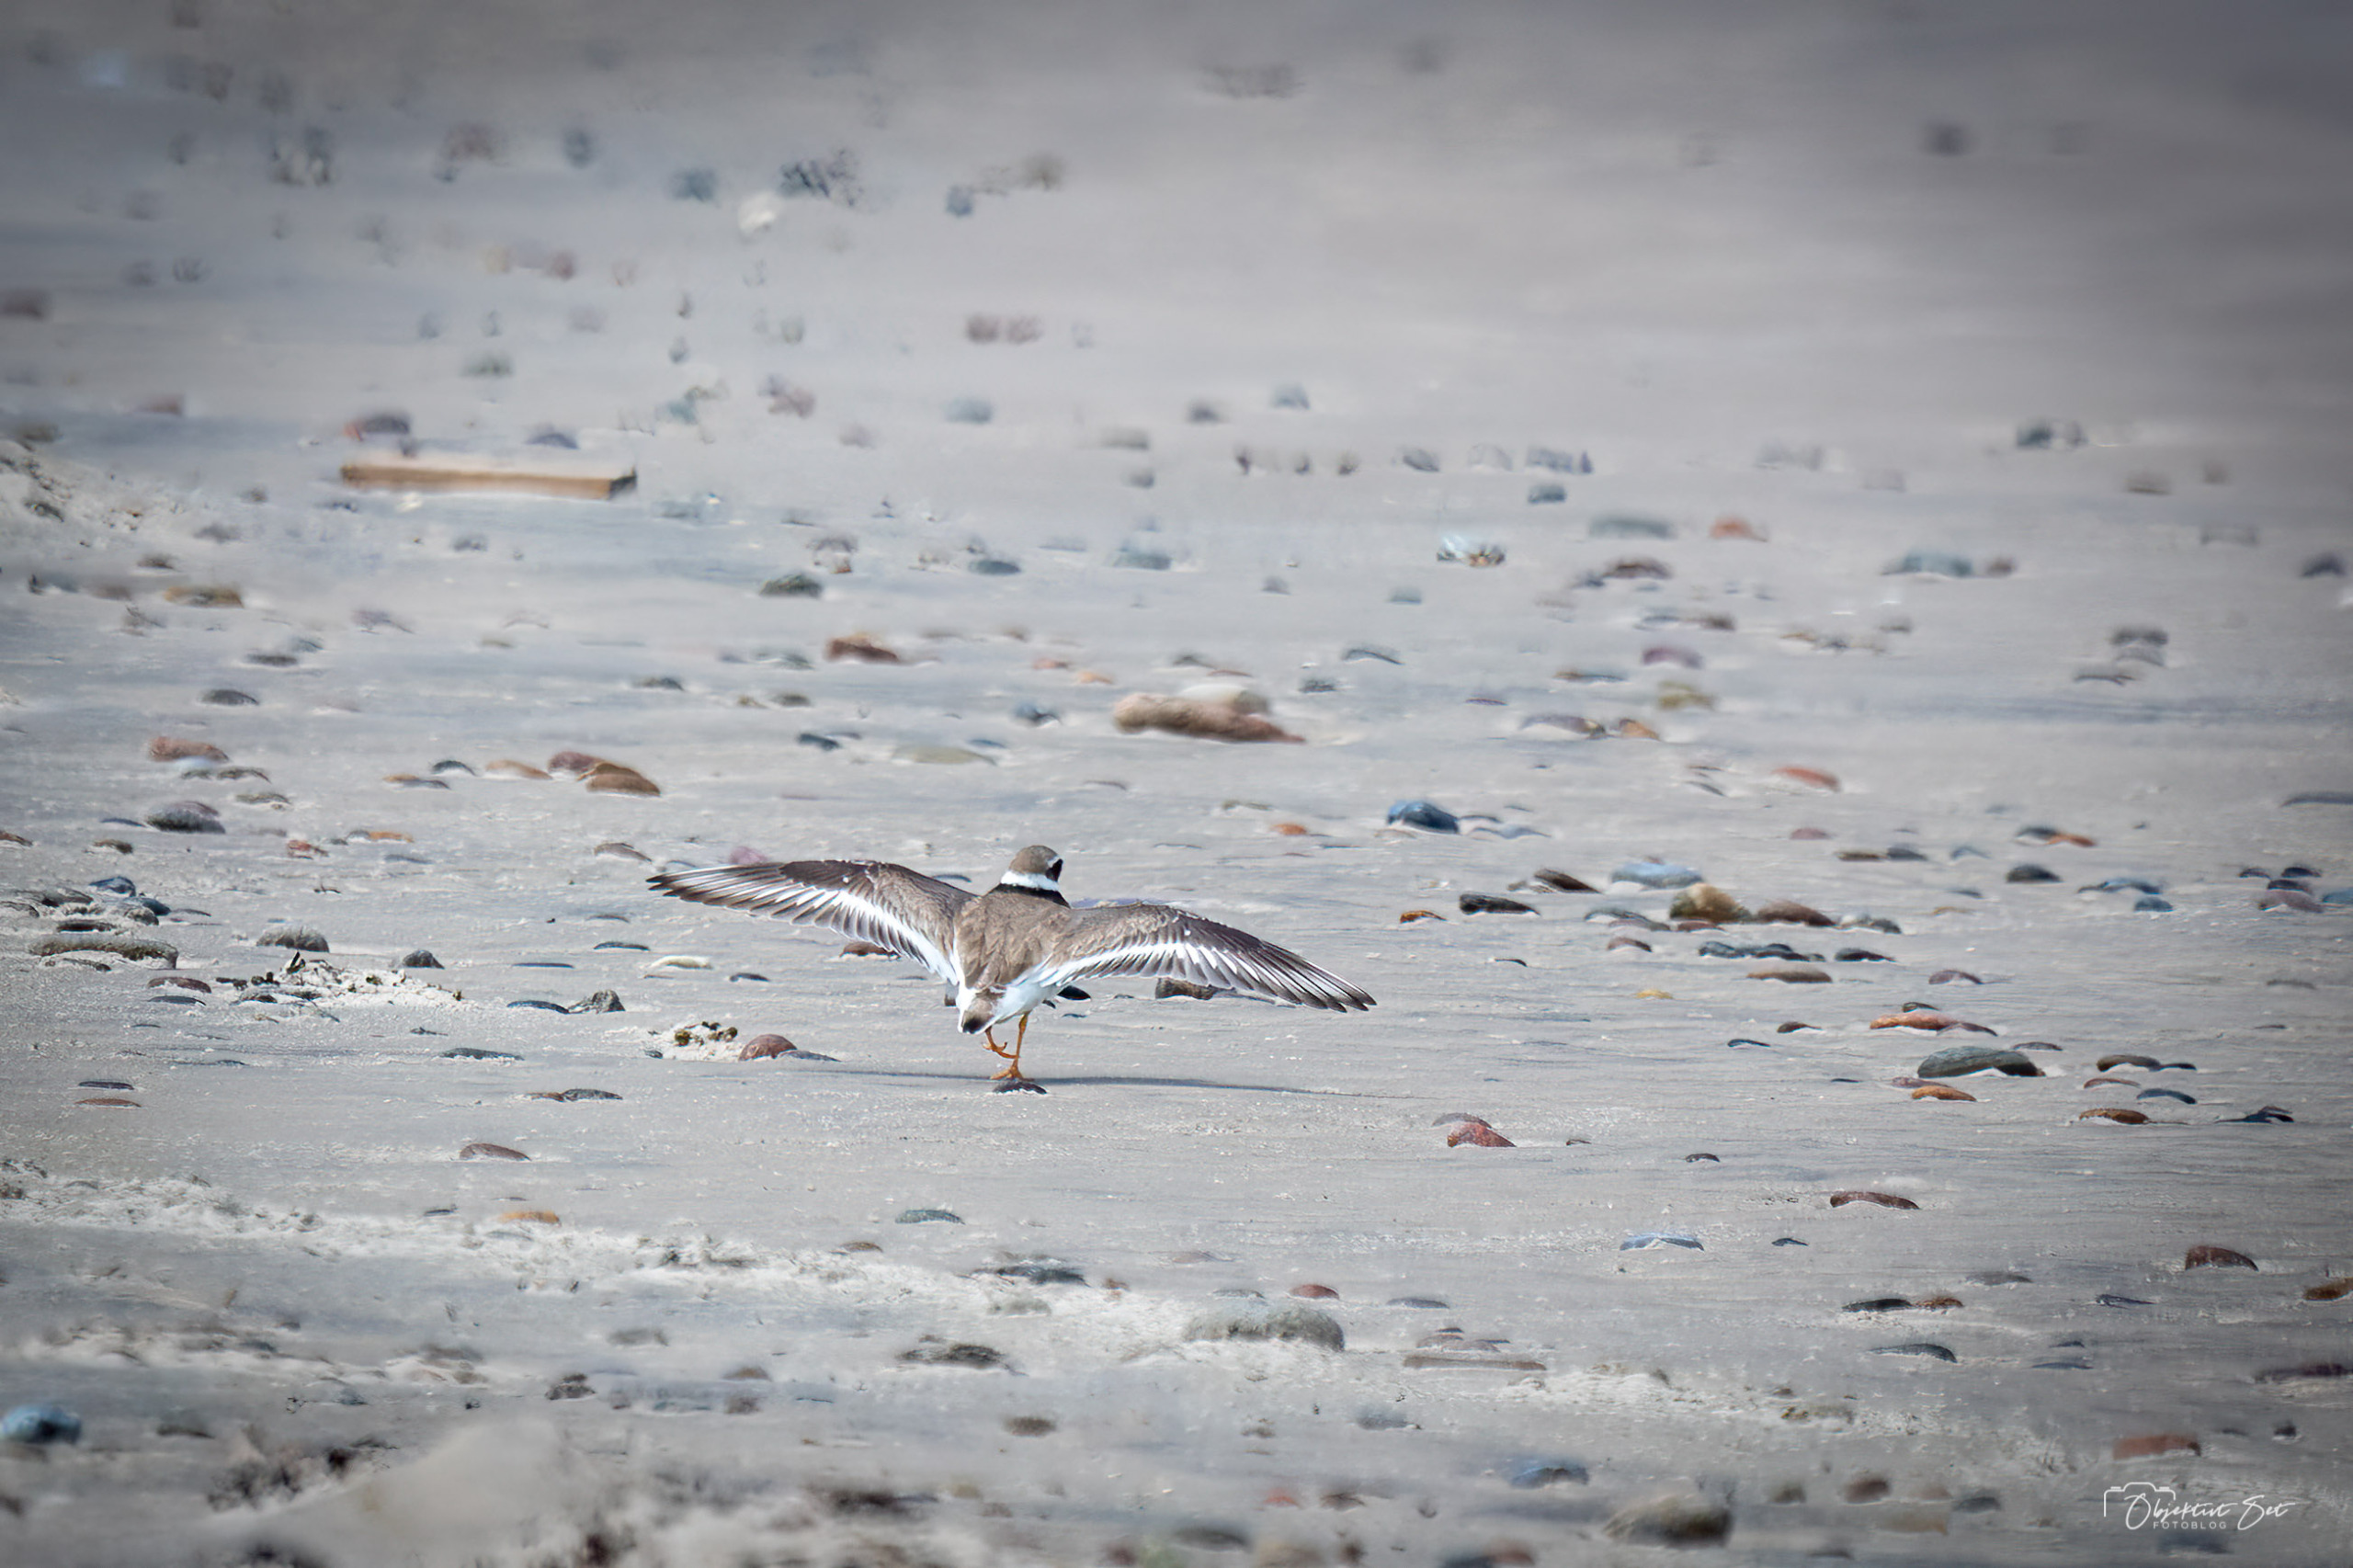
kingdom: Animalia
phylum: Chordata
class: Aves
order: Charadriiformes
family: Charadriidae
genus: Charadrius
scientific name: Charadrius hiaticula
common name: Stor præstekrave
